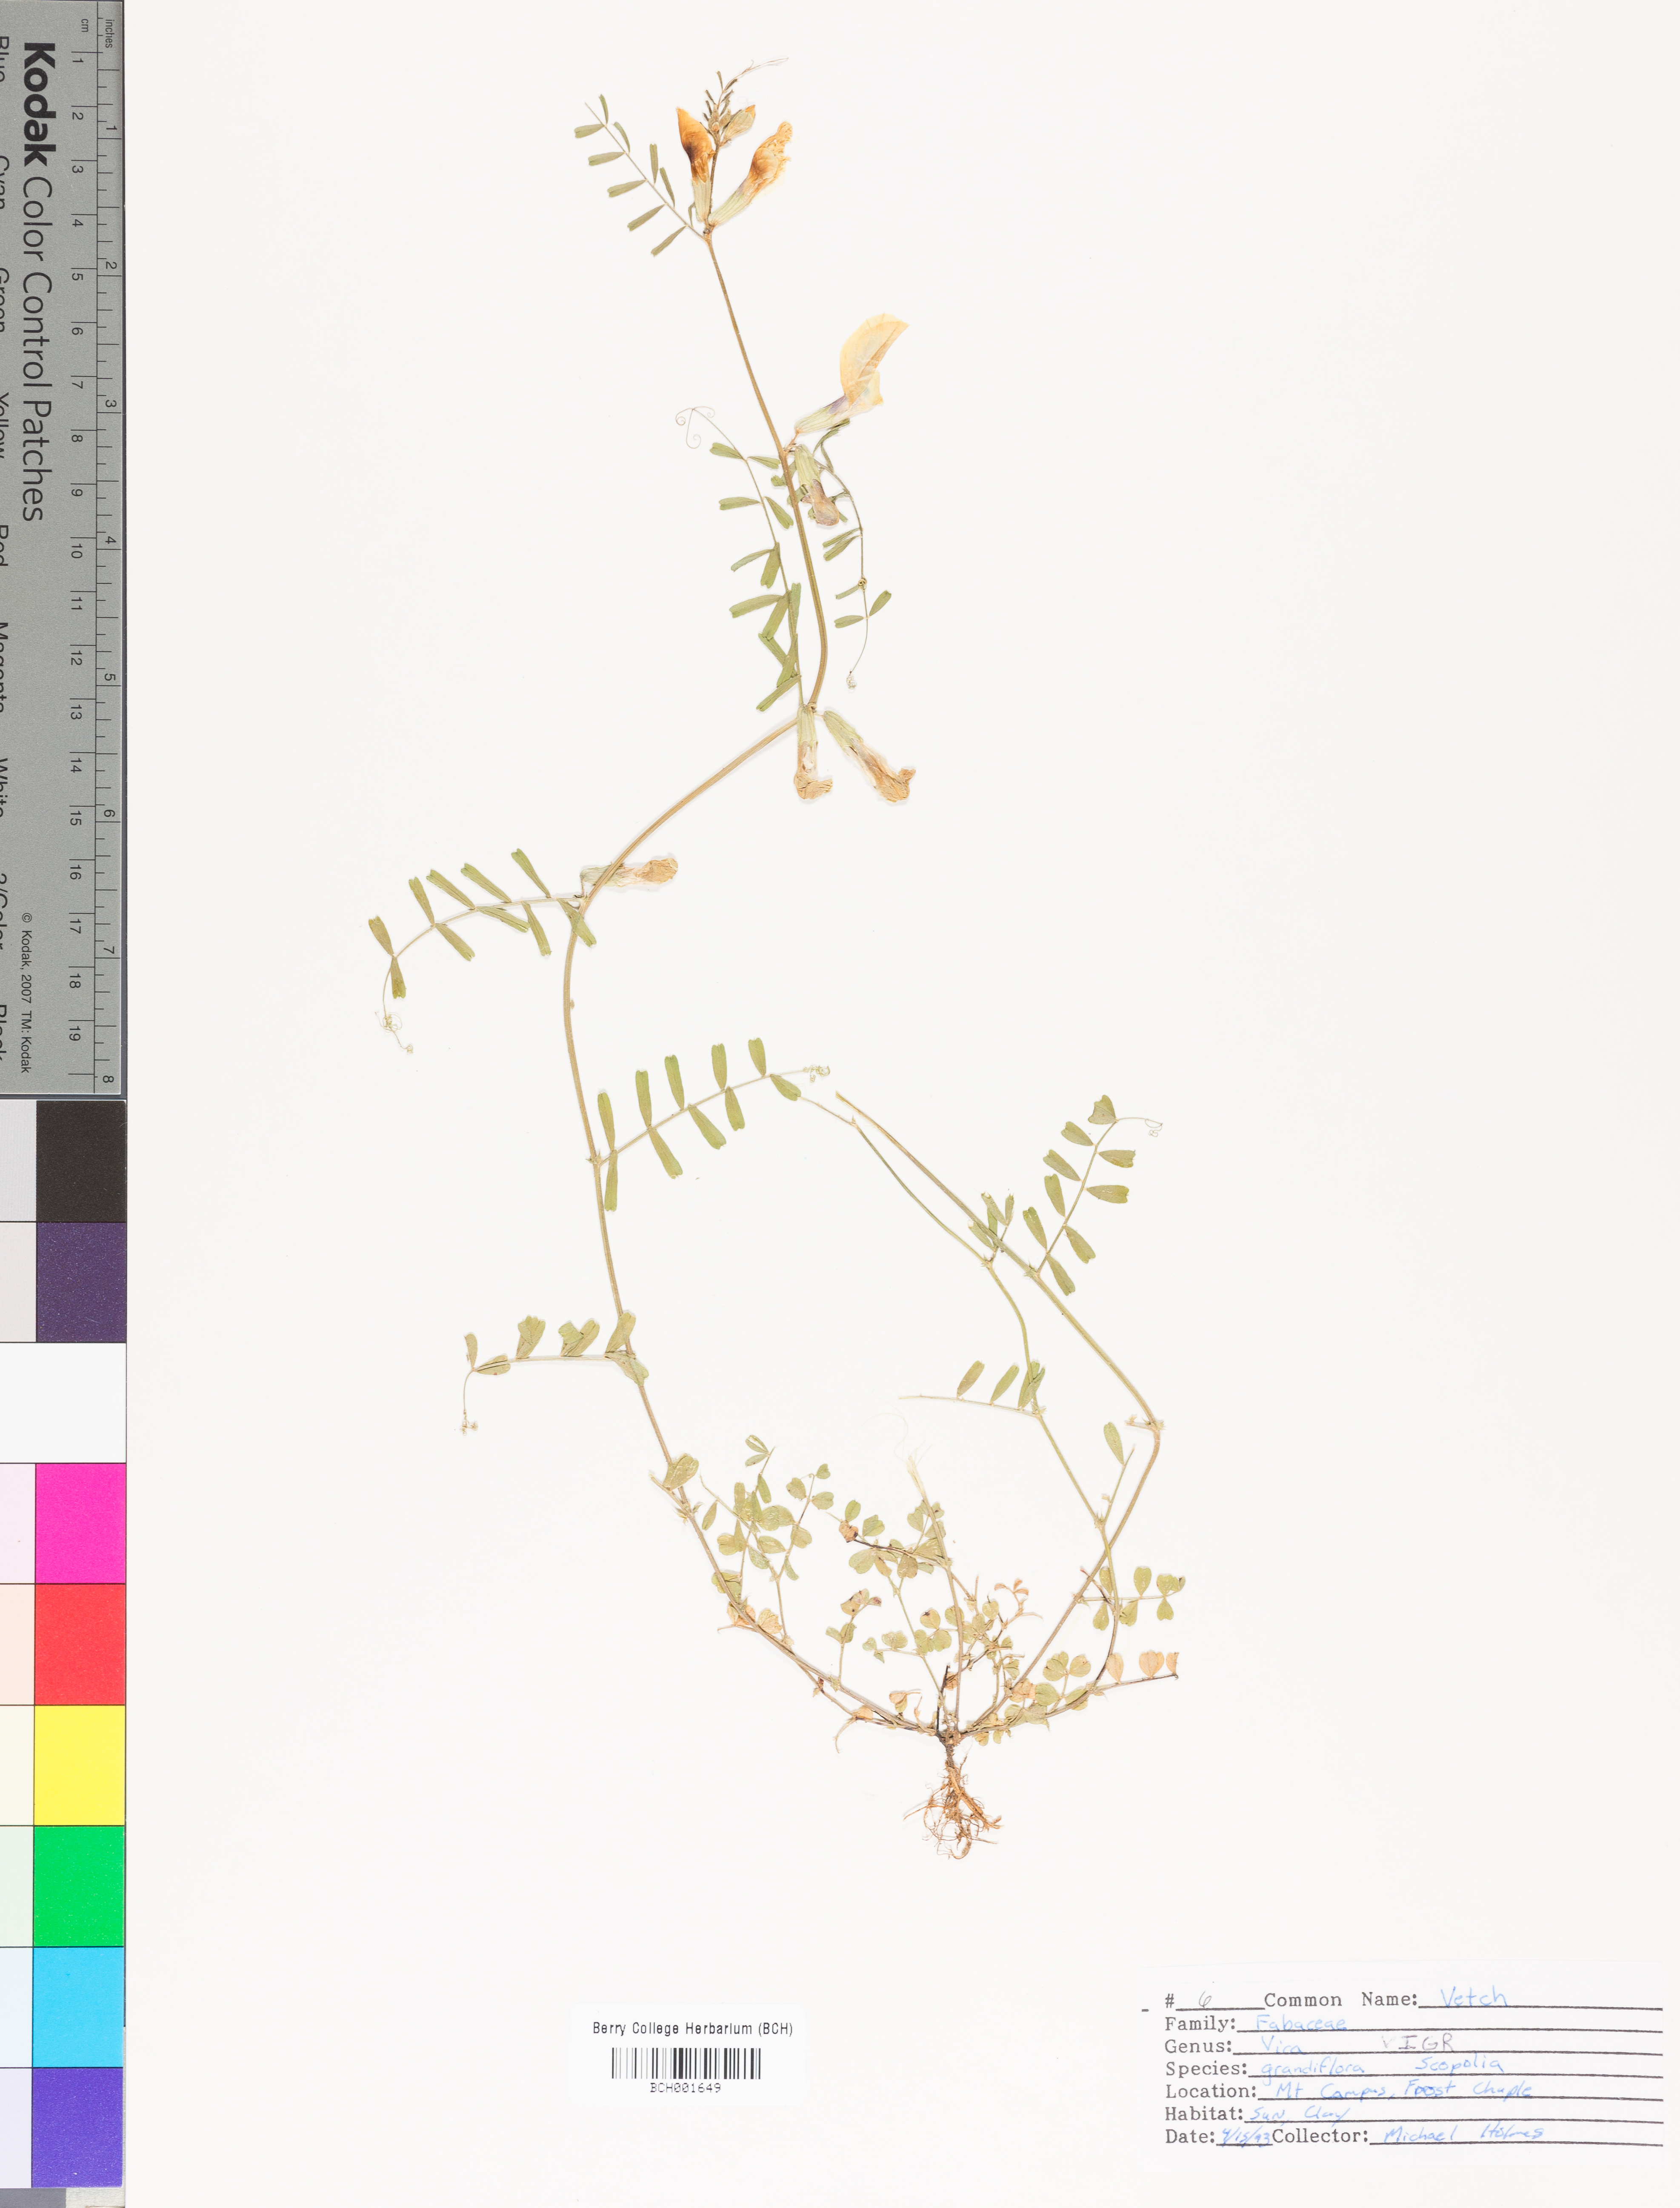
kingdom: Plantae
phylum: Tracheophyta
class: Magnoliopsida
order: Fabales
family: Fabaceae
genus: Vicia
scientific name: Vicia grandiflora
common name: Large yellow vetch
